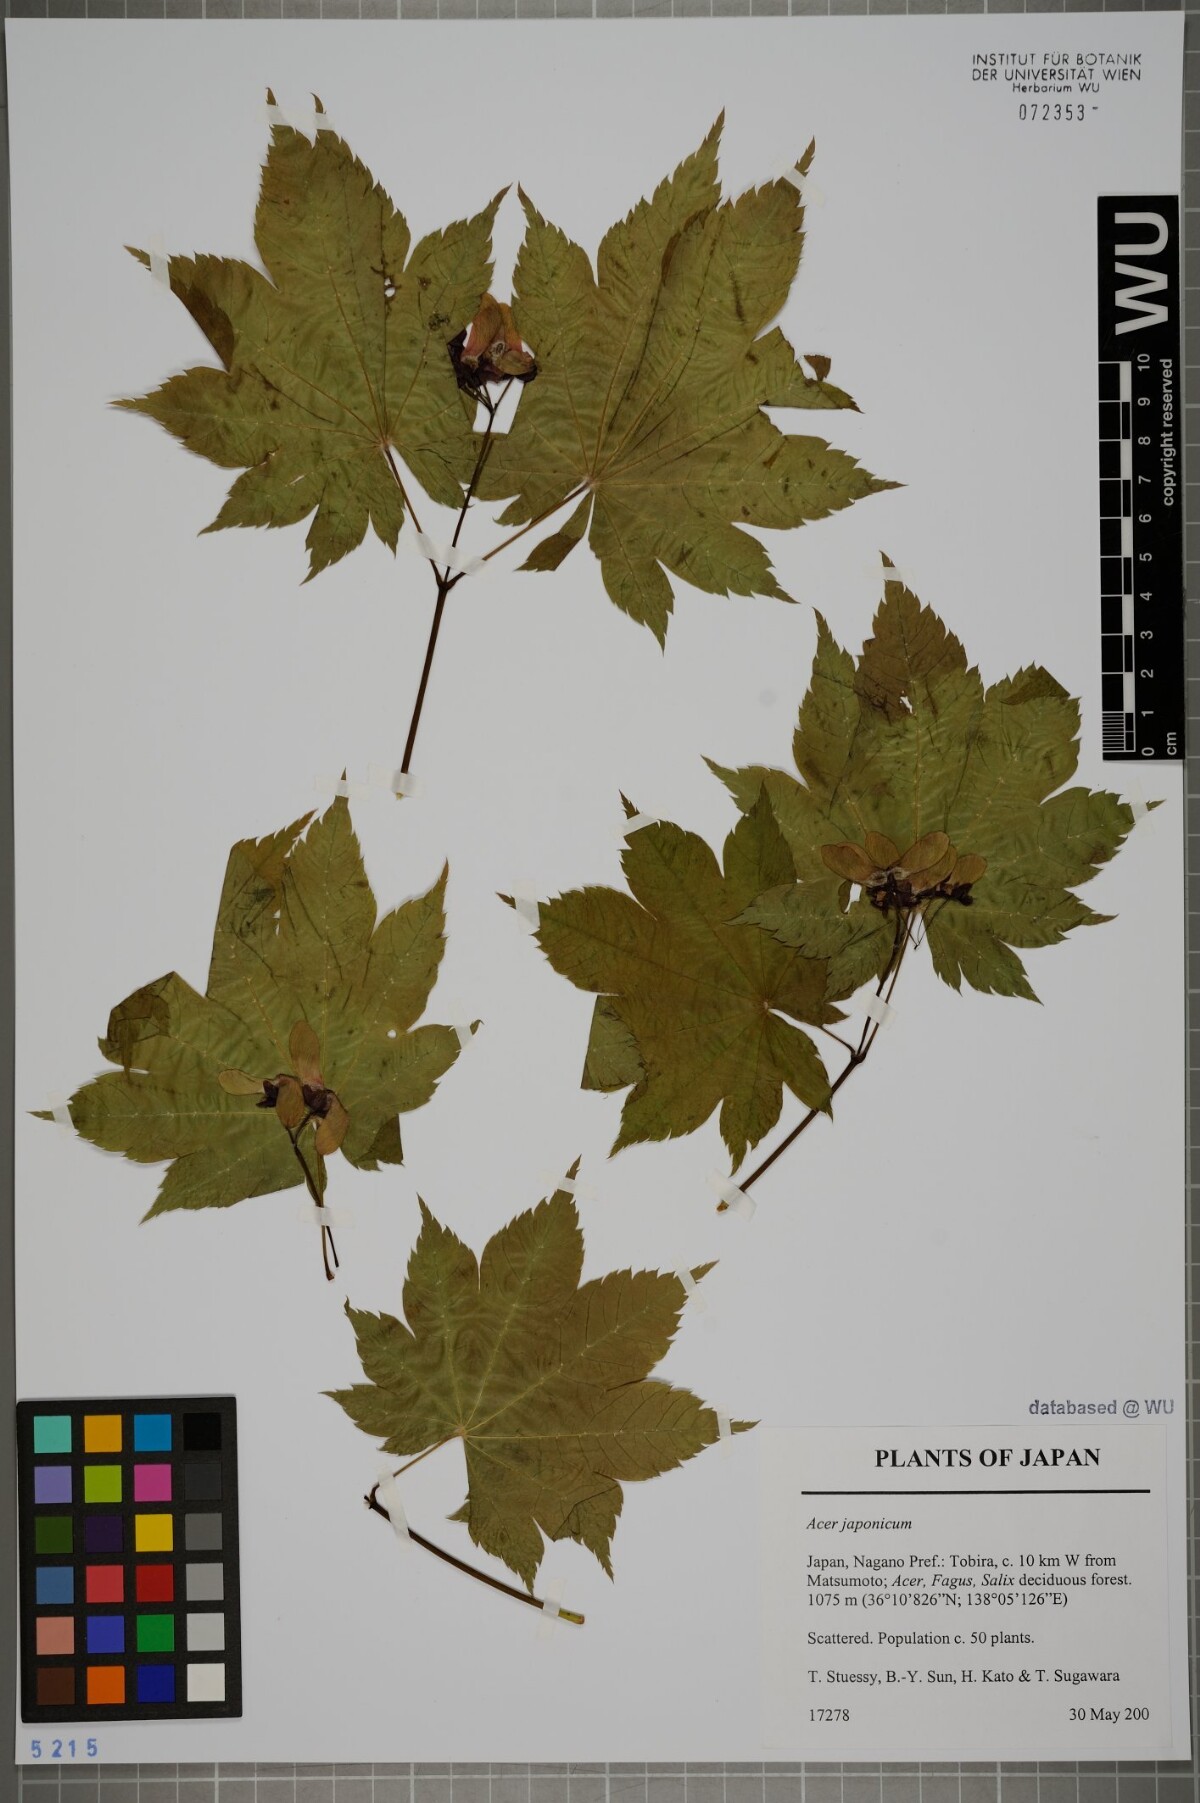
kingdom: Plantae
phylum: Tracheophyta
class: Magnoliopsida
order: Sapindales
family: Sapindaceae
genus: Acer
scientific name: Acer japonicum
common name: Amur maple
